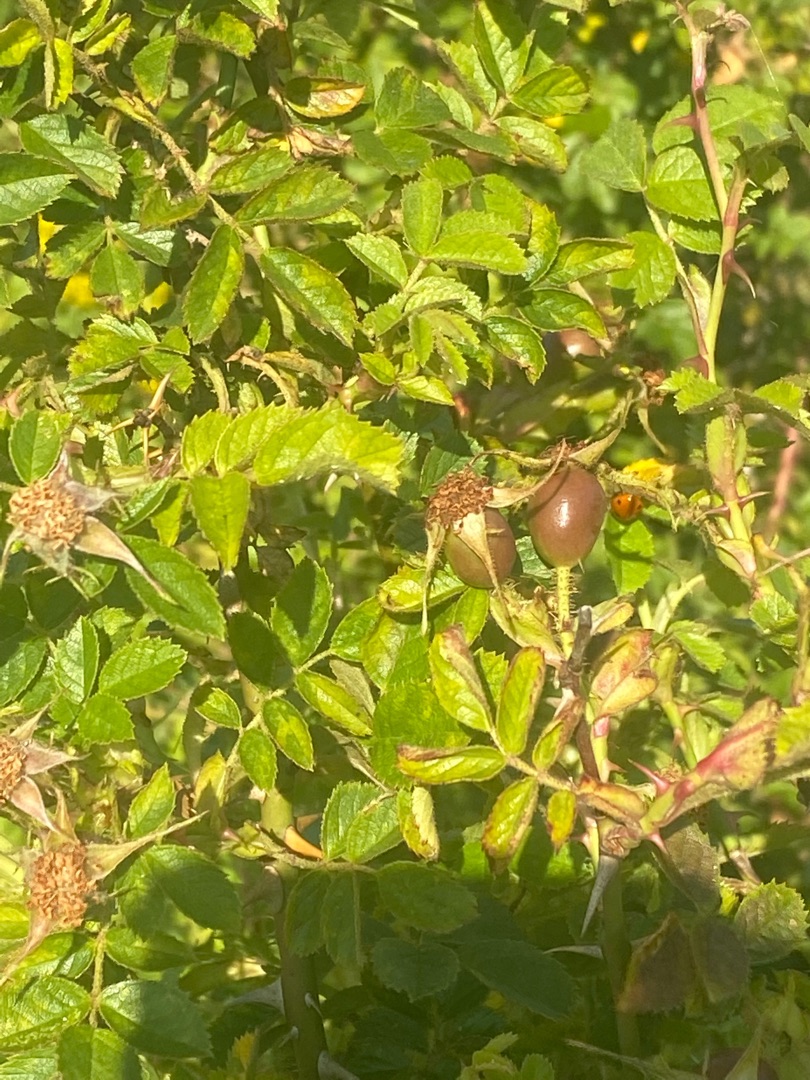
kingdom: Plantae
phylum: Tracheophyta
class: Magnoliopsida
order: Rosales
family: Rosaceae
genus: Rosa
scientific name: Rosa rubiginosa
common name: Æble-rose
